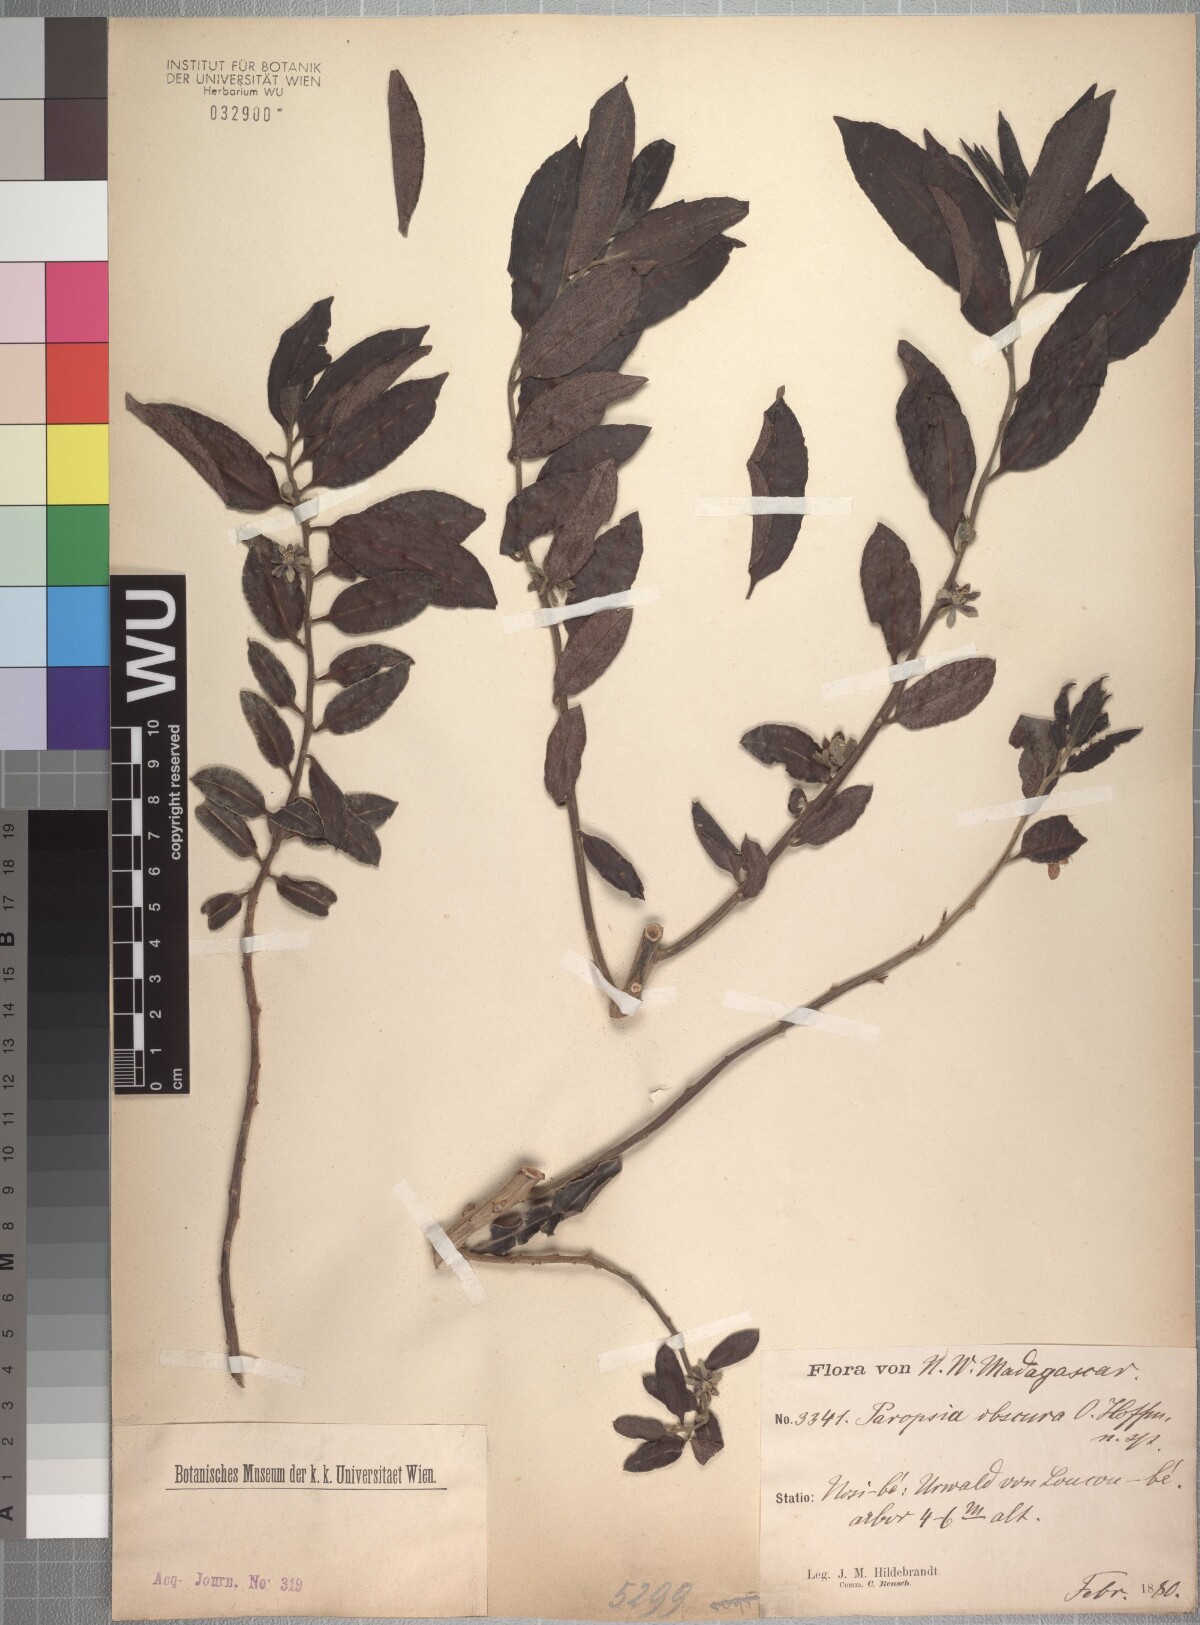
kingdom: Plantae
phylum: Tracheophyta
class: Magnoliopsida
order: Malpighiales
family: Passifloraceae
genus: Paropsia
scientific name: Paropsia obscura
